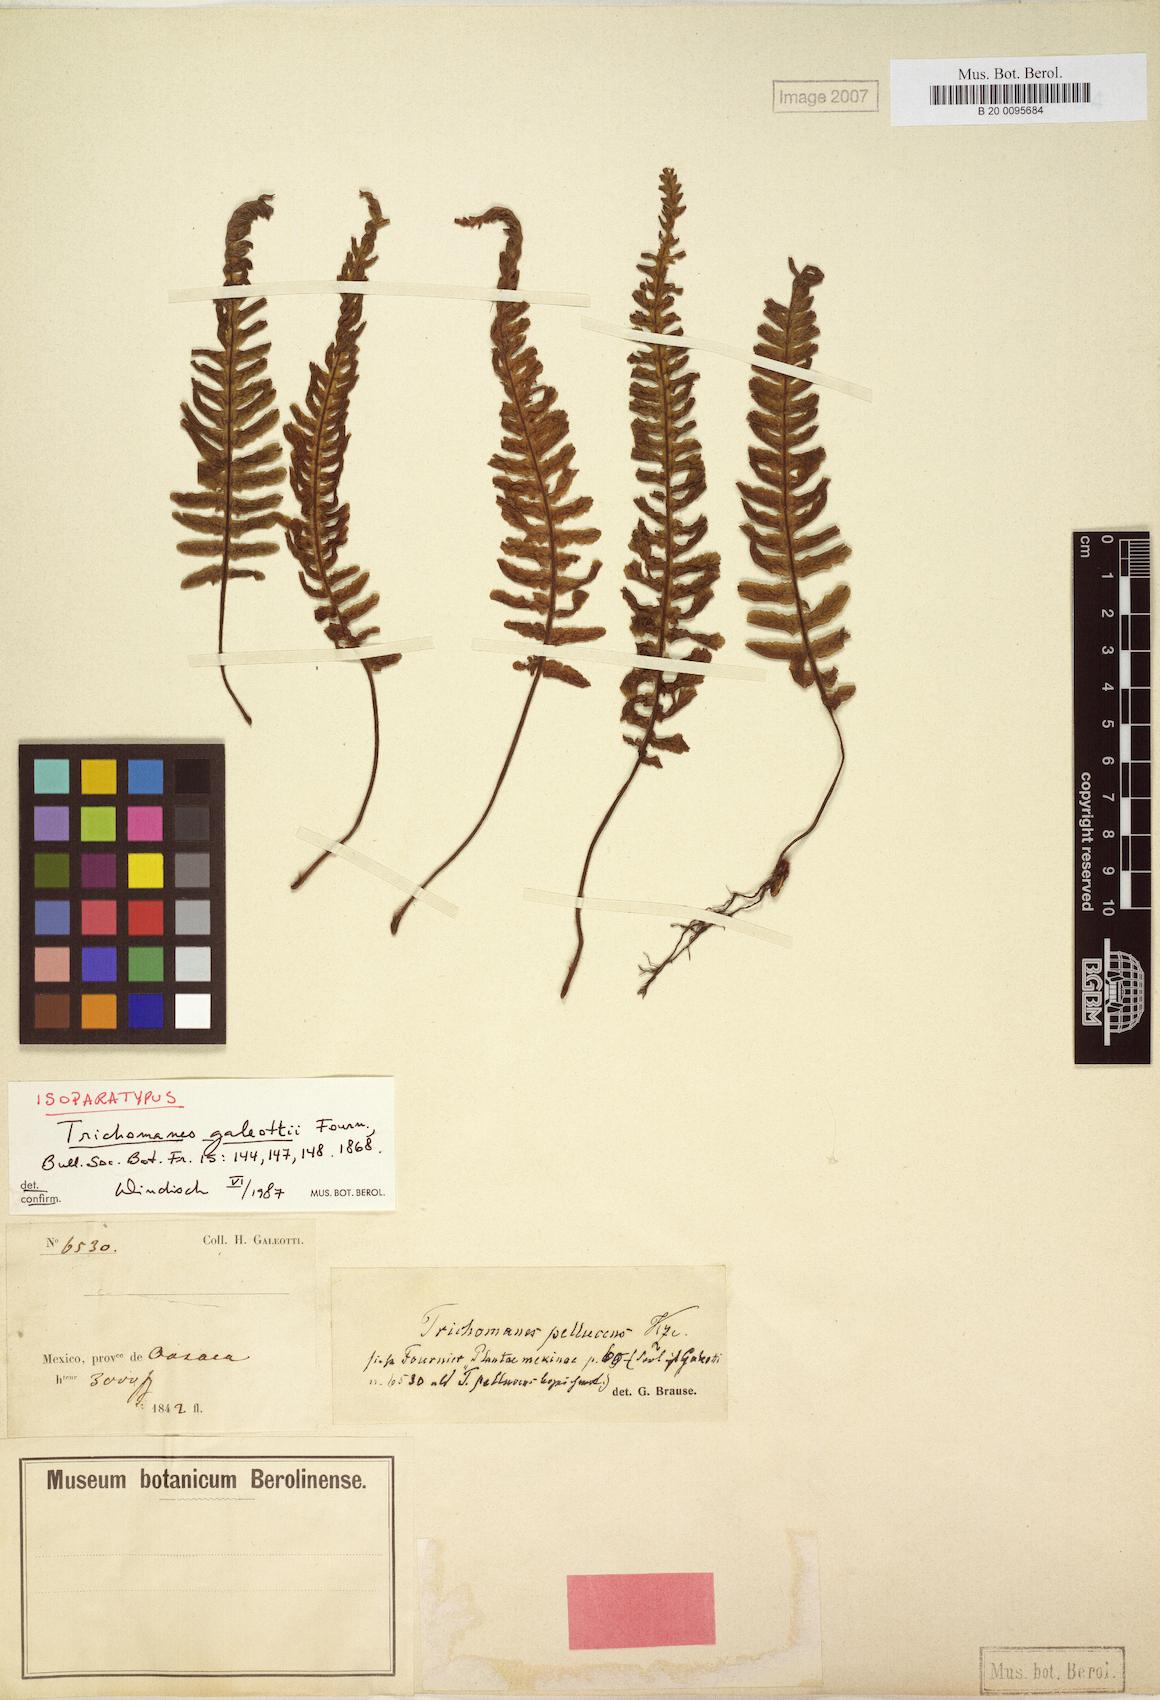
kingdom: Plantae
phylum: Tracheophyta
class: Polypodiopsida
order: Hymenophyllales
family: Hymenophyllaceae
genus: Trichomanes
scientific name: Trichomanes galeottii
